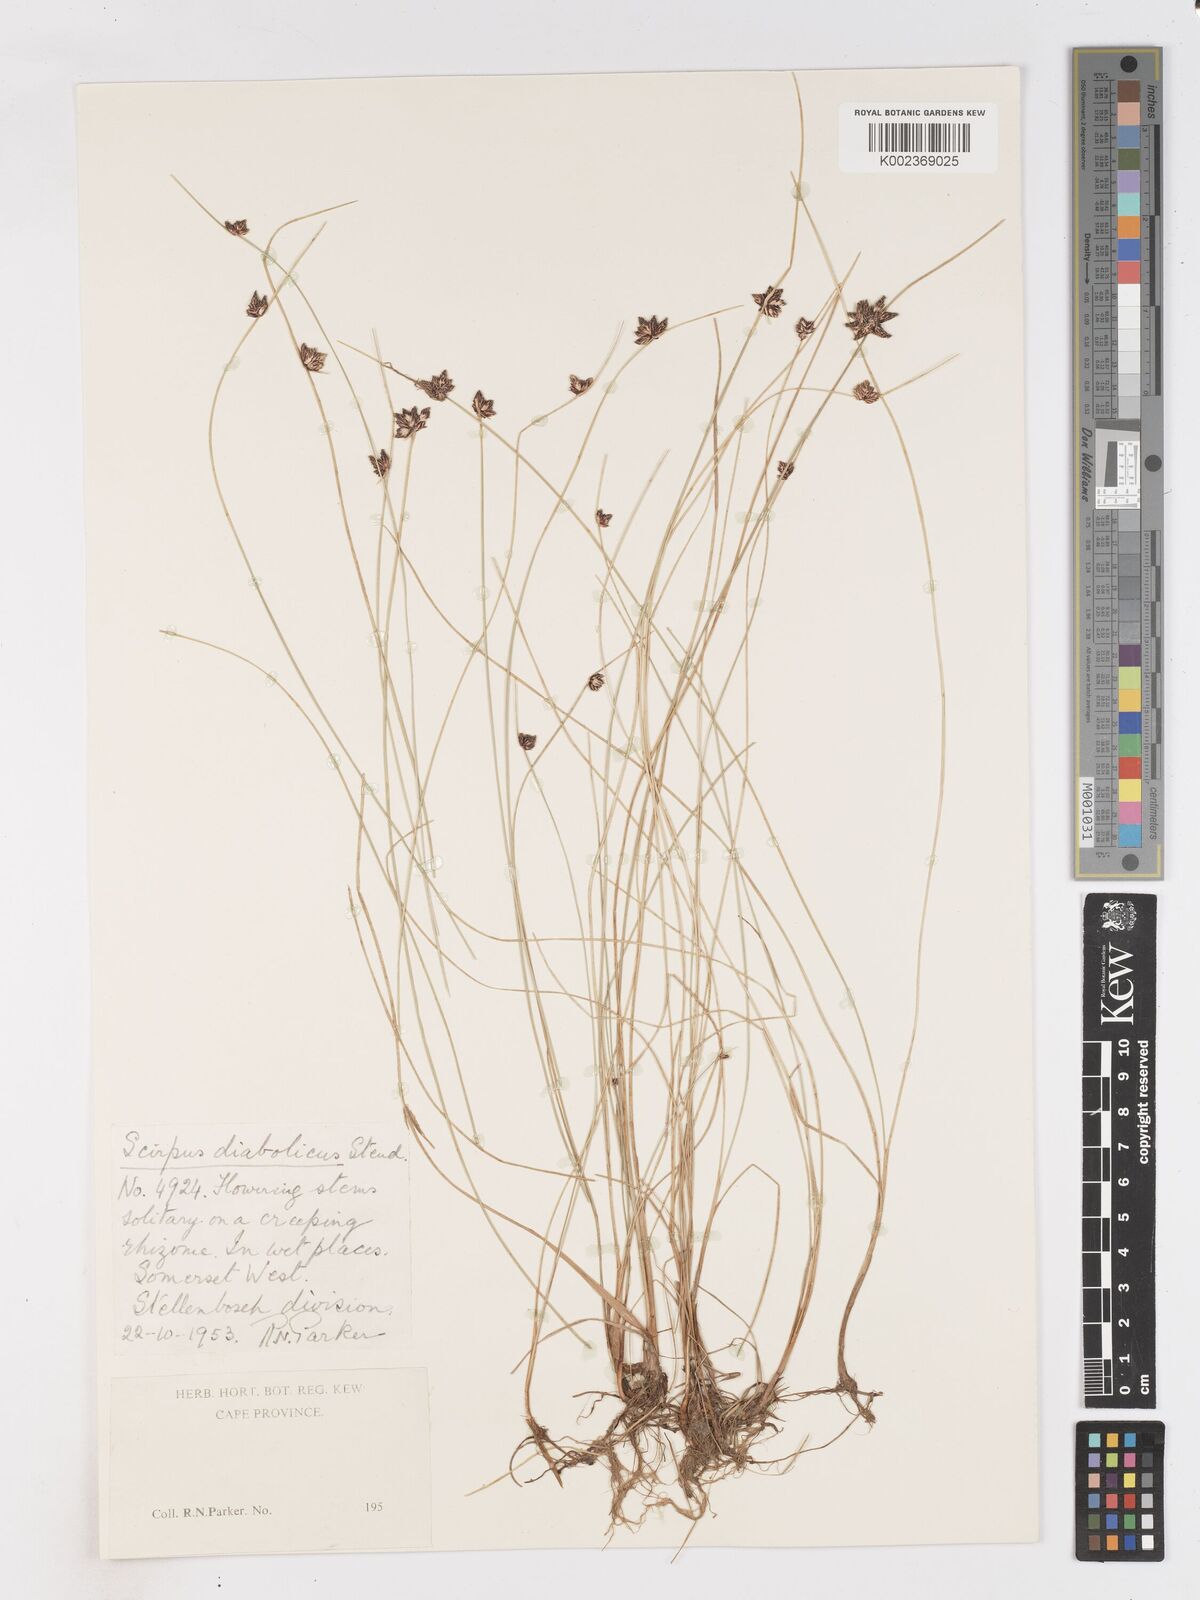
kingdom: Plantae
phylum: Tracheophyta
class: Liliopsida
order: Poales
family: Cyperaceae
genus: Isolepis
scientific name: Isolepis diabolica
